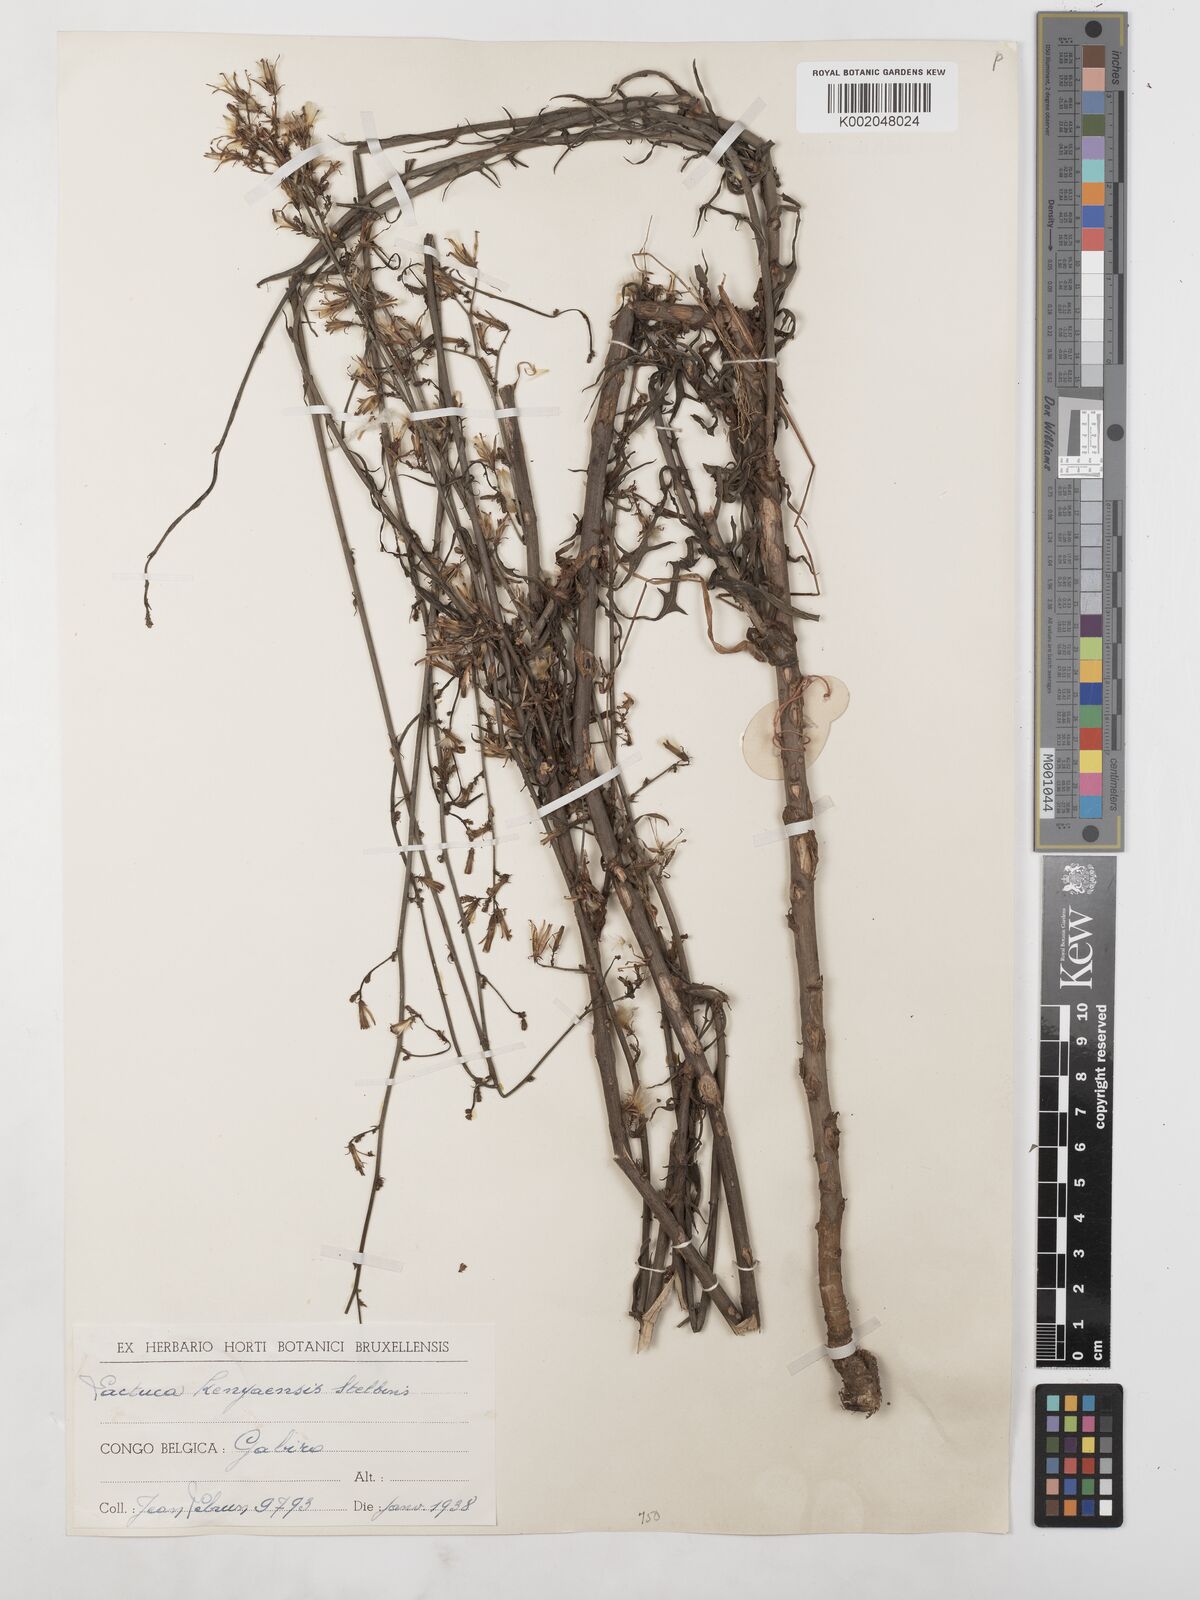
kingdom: Plantae
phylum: Tracheophyta
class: Magnoliopsida
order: Asterales
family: Asteraceae
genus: Lactuca
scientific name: Lactuca inermis
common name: Wild lettuce
